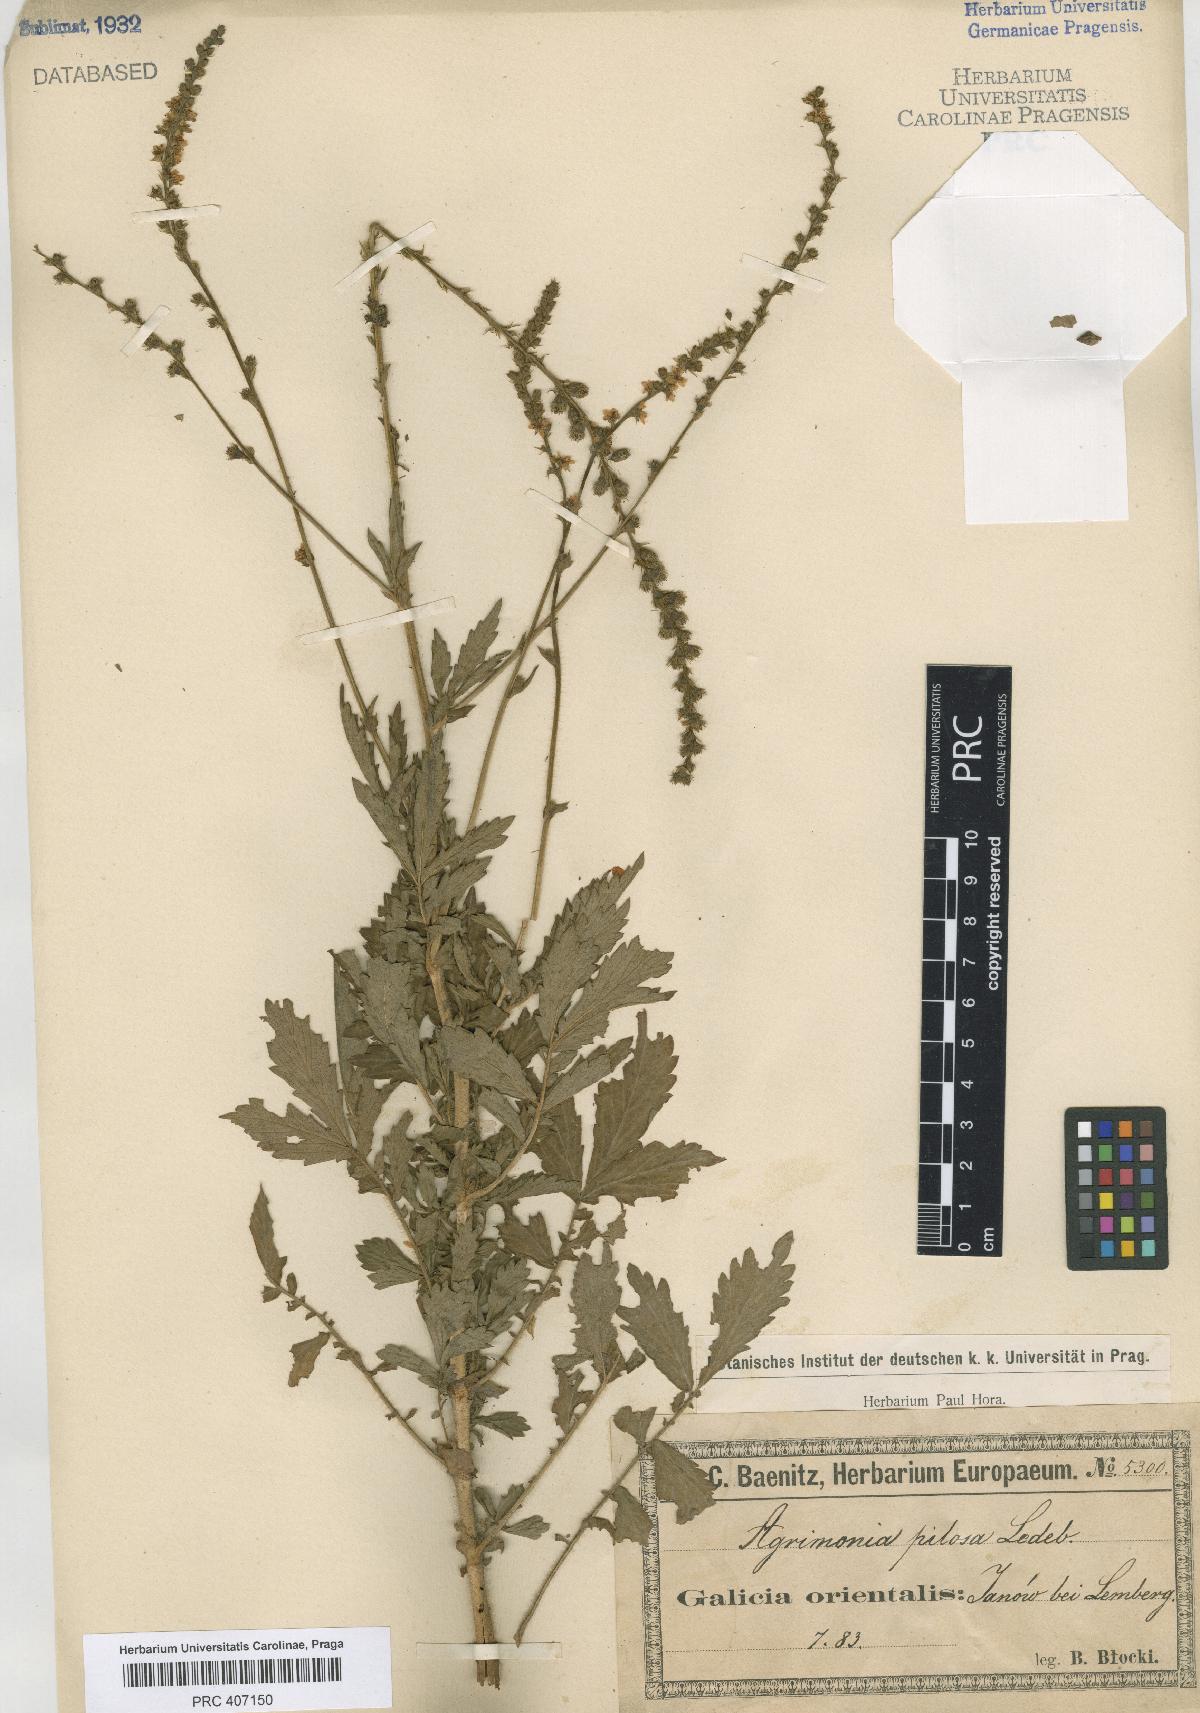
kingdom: Plantae
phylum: Tracheophyta
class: Magnoliopsida
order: Rosales
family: Rosaceae
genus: Agrimonia
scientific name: Agrimonia pilosa
